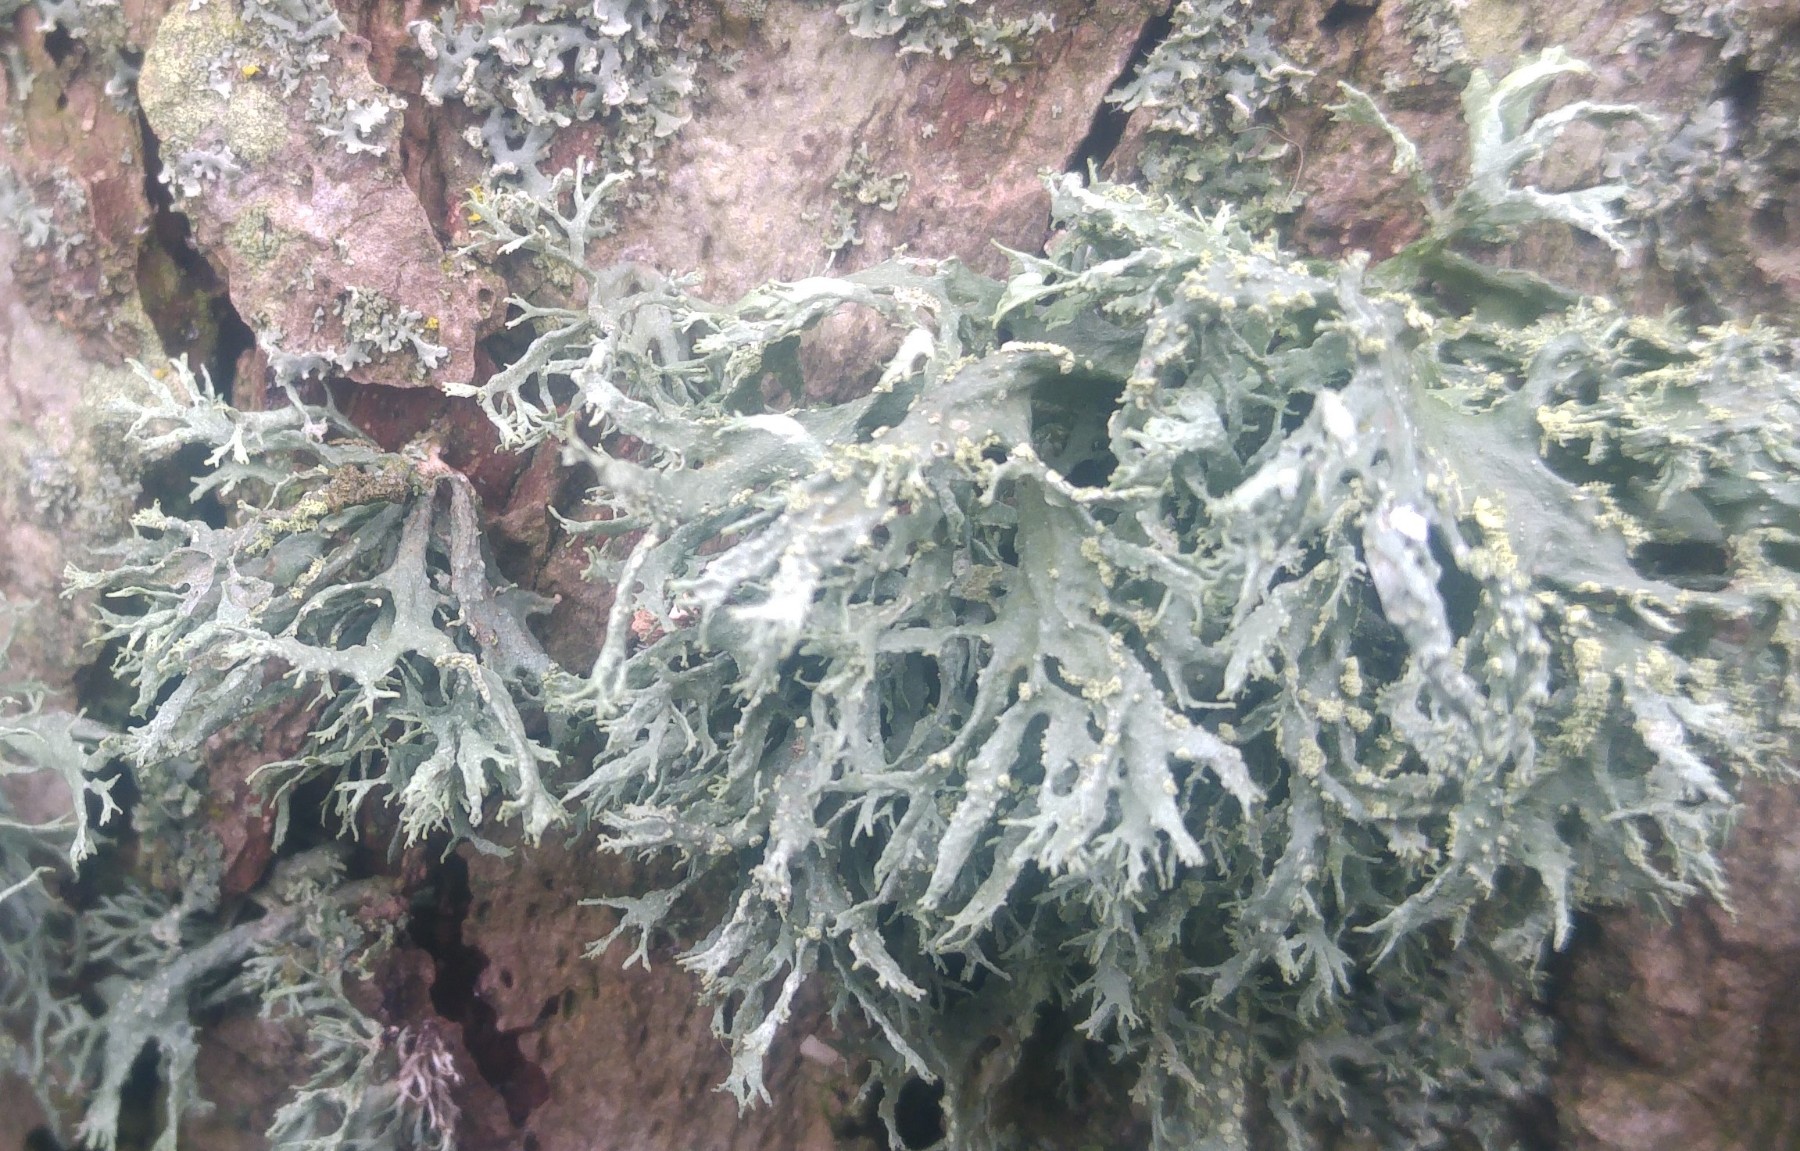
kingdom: Fungi
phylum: Ascomycota
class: Lecanoromycetes
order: Lecanorales
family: Ramalinaceae
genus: Ramalina
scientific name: Ramalina farinacea
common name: melet grenlav
